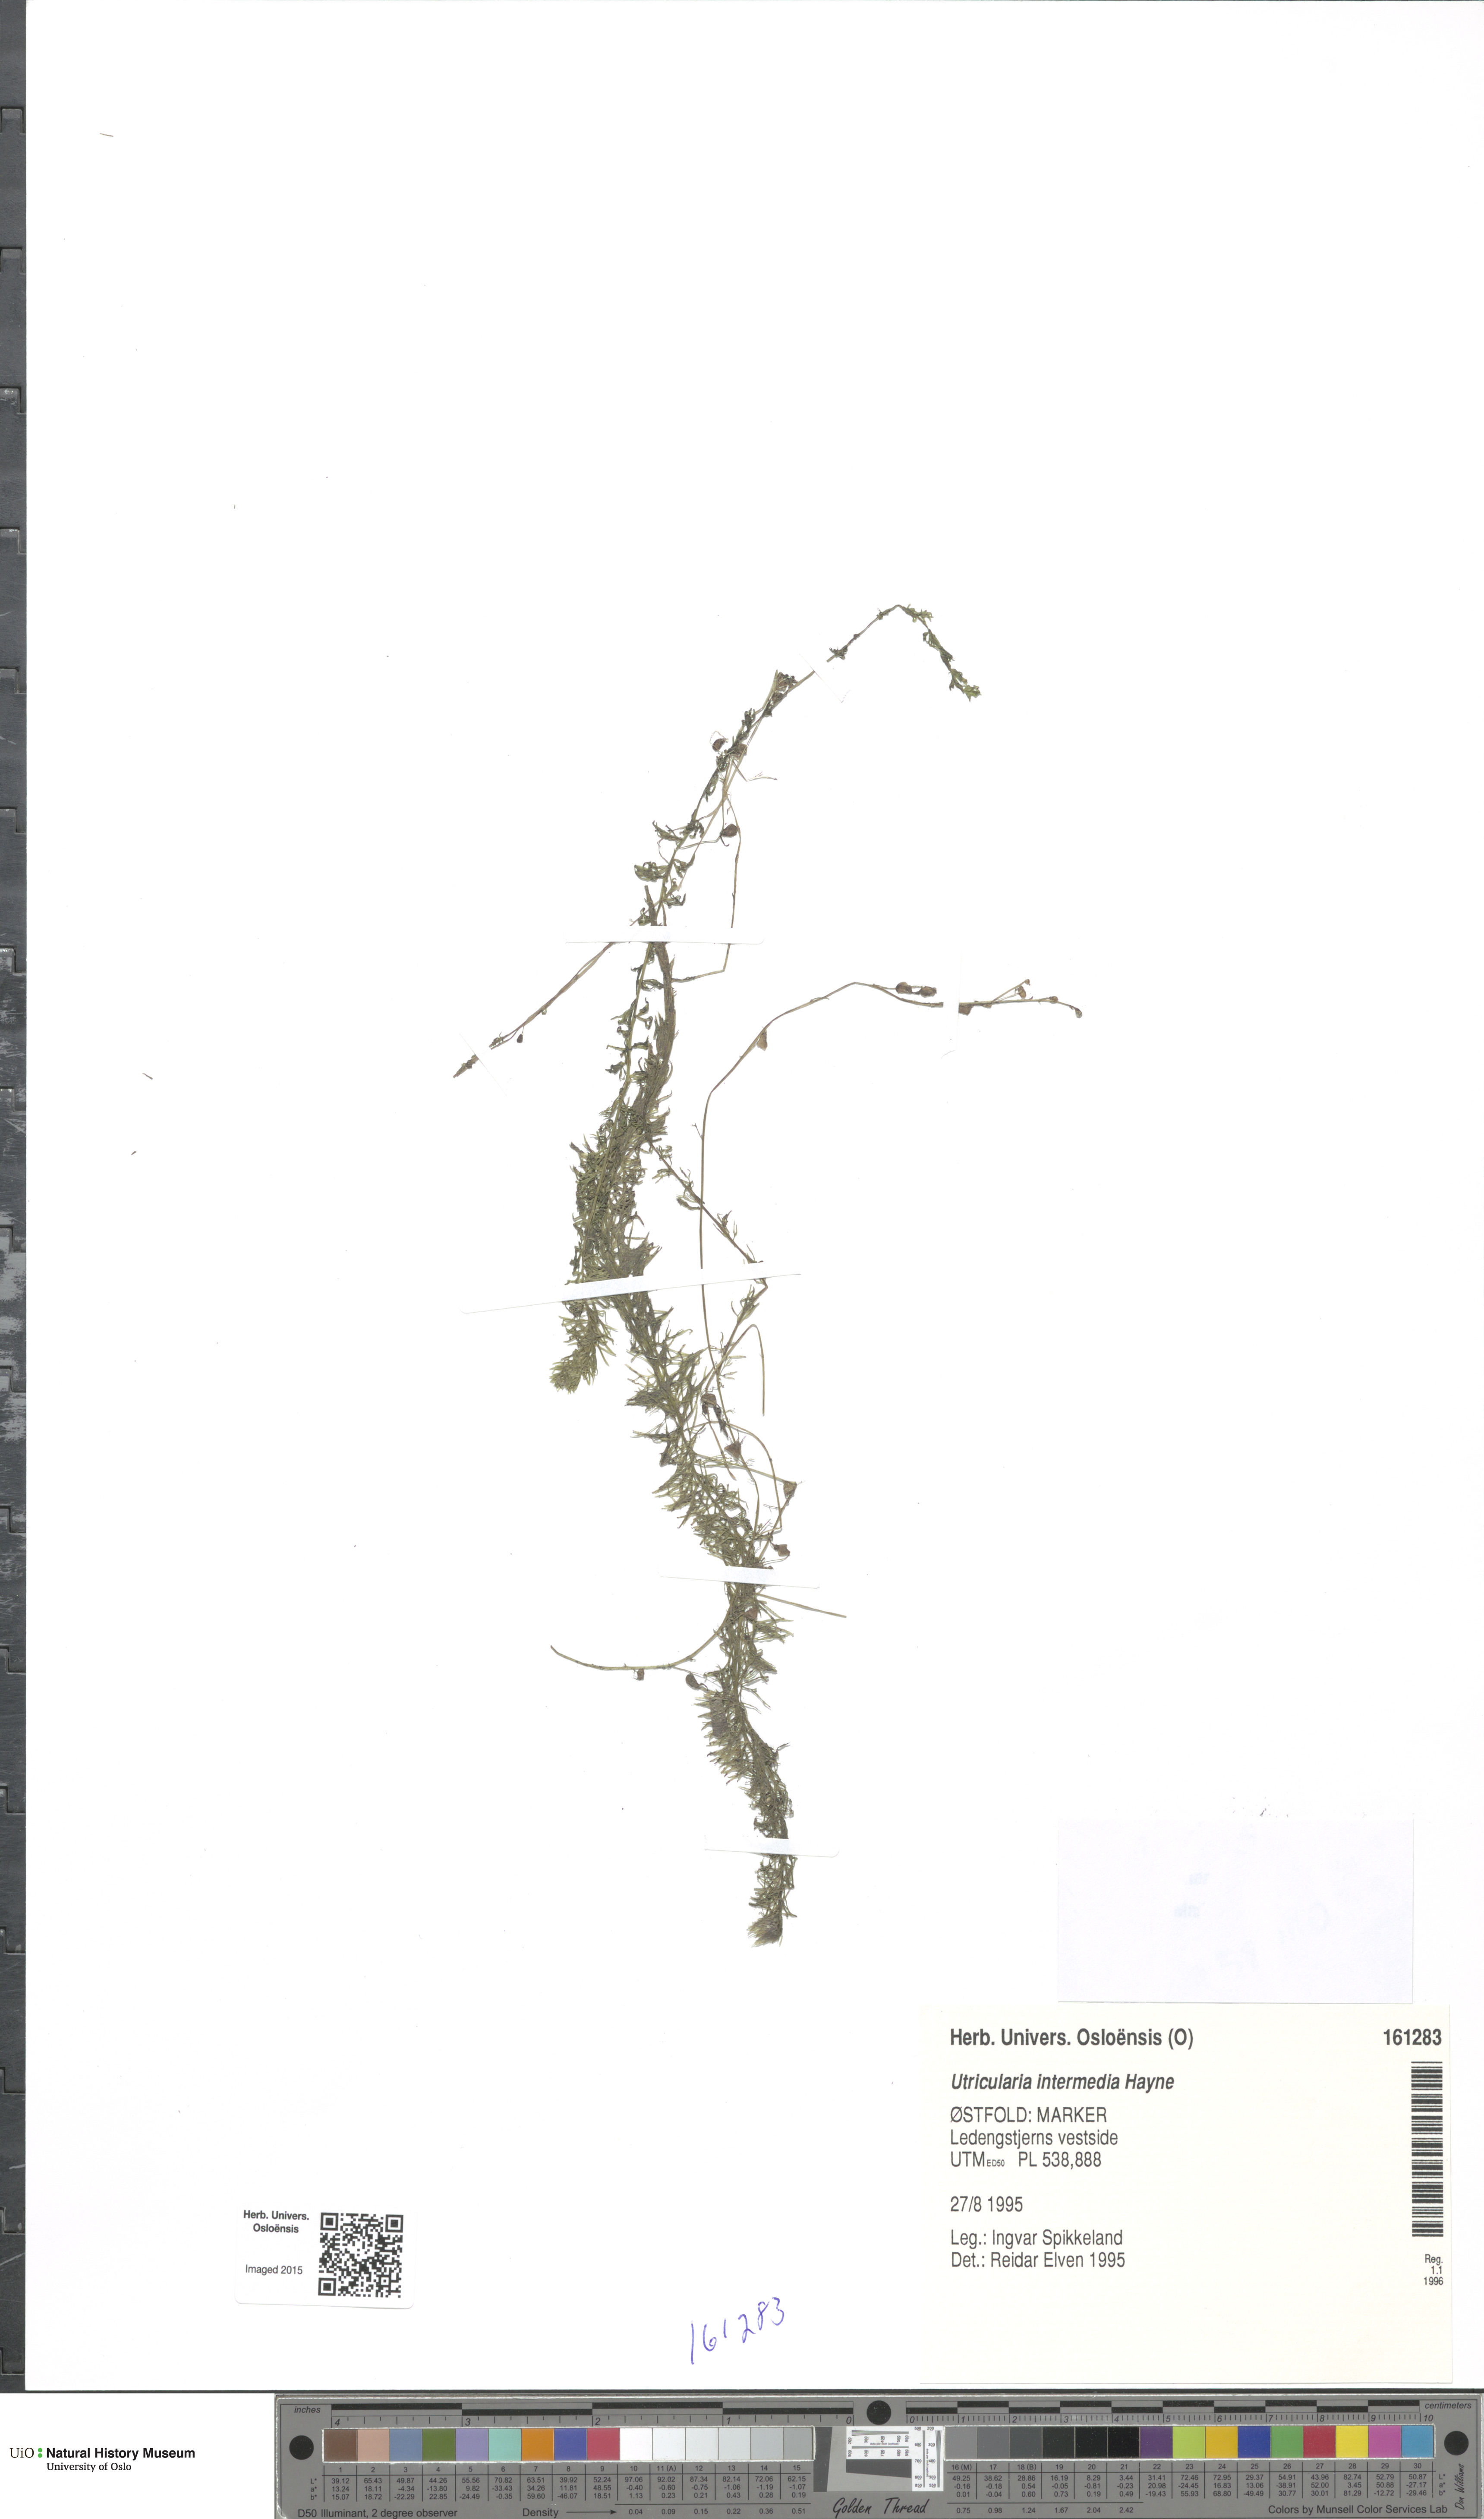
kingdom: Plantae
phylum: Tracheophyta
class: Magnoliopsida
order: Lamiales
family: Lentibulariaceae
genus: Utricularia
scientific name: Utricularia intermedia
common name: Intermediate bladderwort
